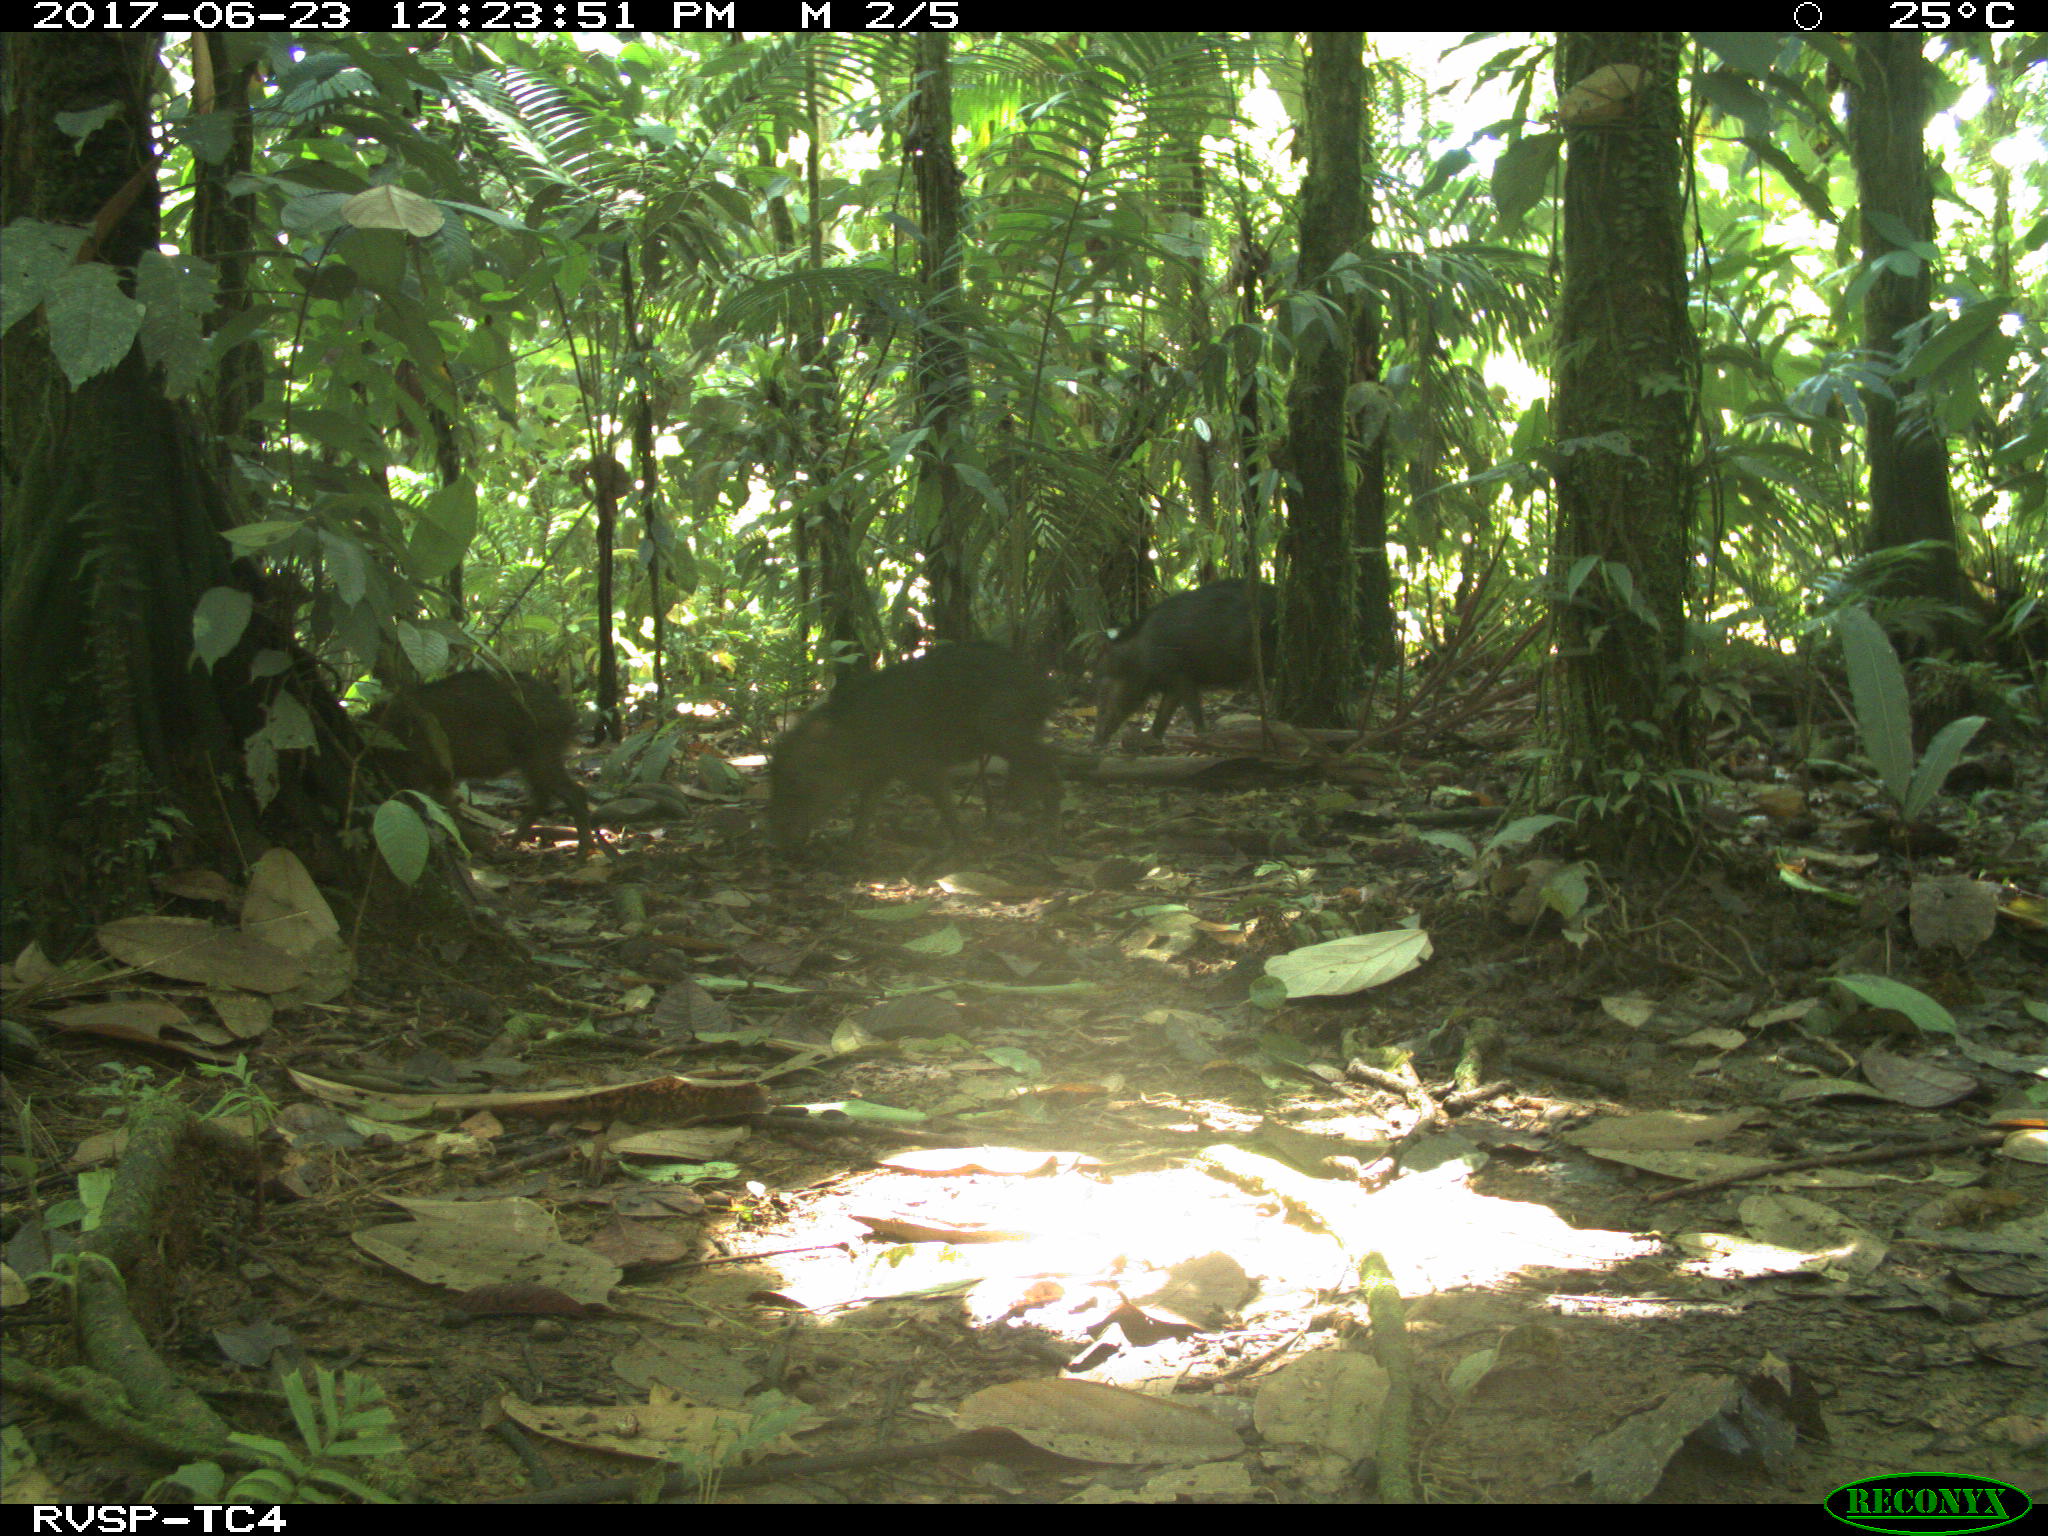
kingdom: Animalia
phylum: Chordata
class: Mammalia
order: Artiodactyla
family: Tayassuidae
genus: Tayassu
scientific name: Tayassu pecari
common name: White-lipped peccary
